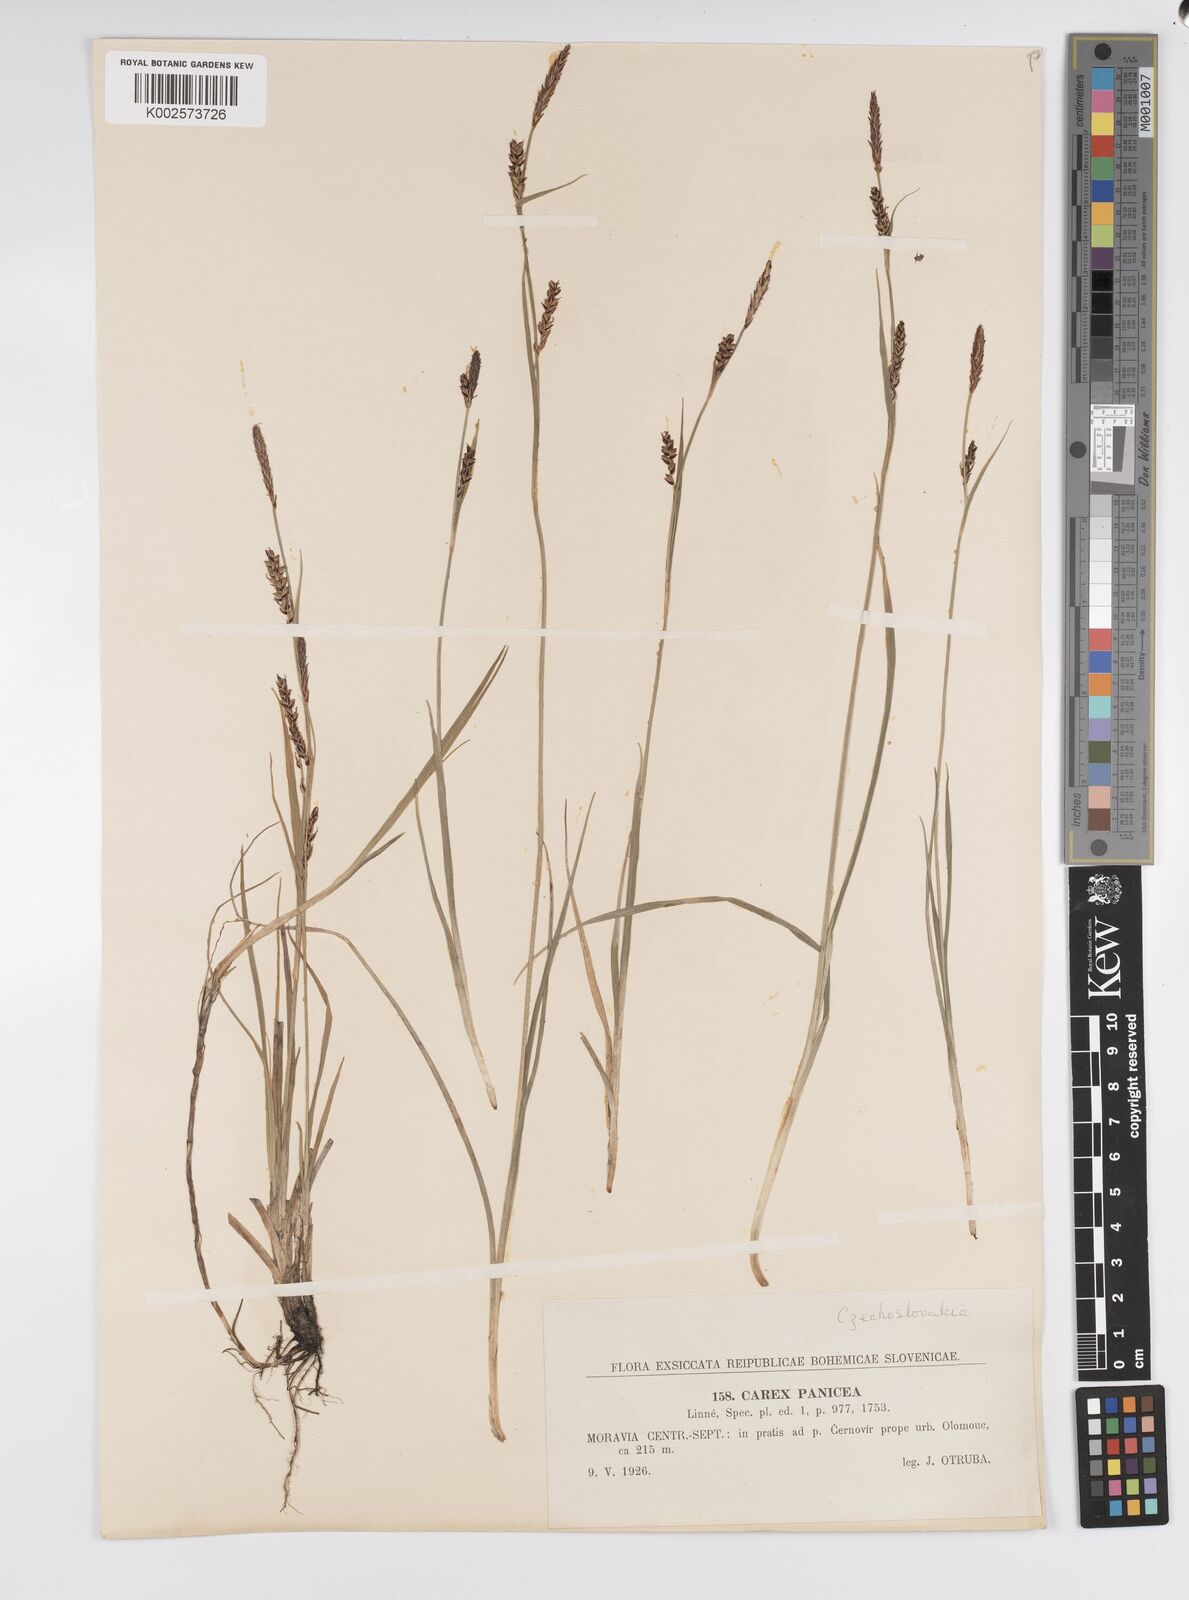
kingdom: Plantae
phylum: Tracheophyta
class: Liliopsida
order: Poales
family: Cyperaceae
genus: Carex
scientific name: Carex panicea
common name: Carnation sedge
